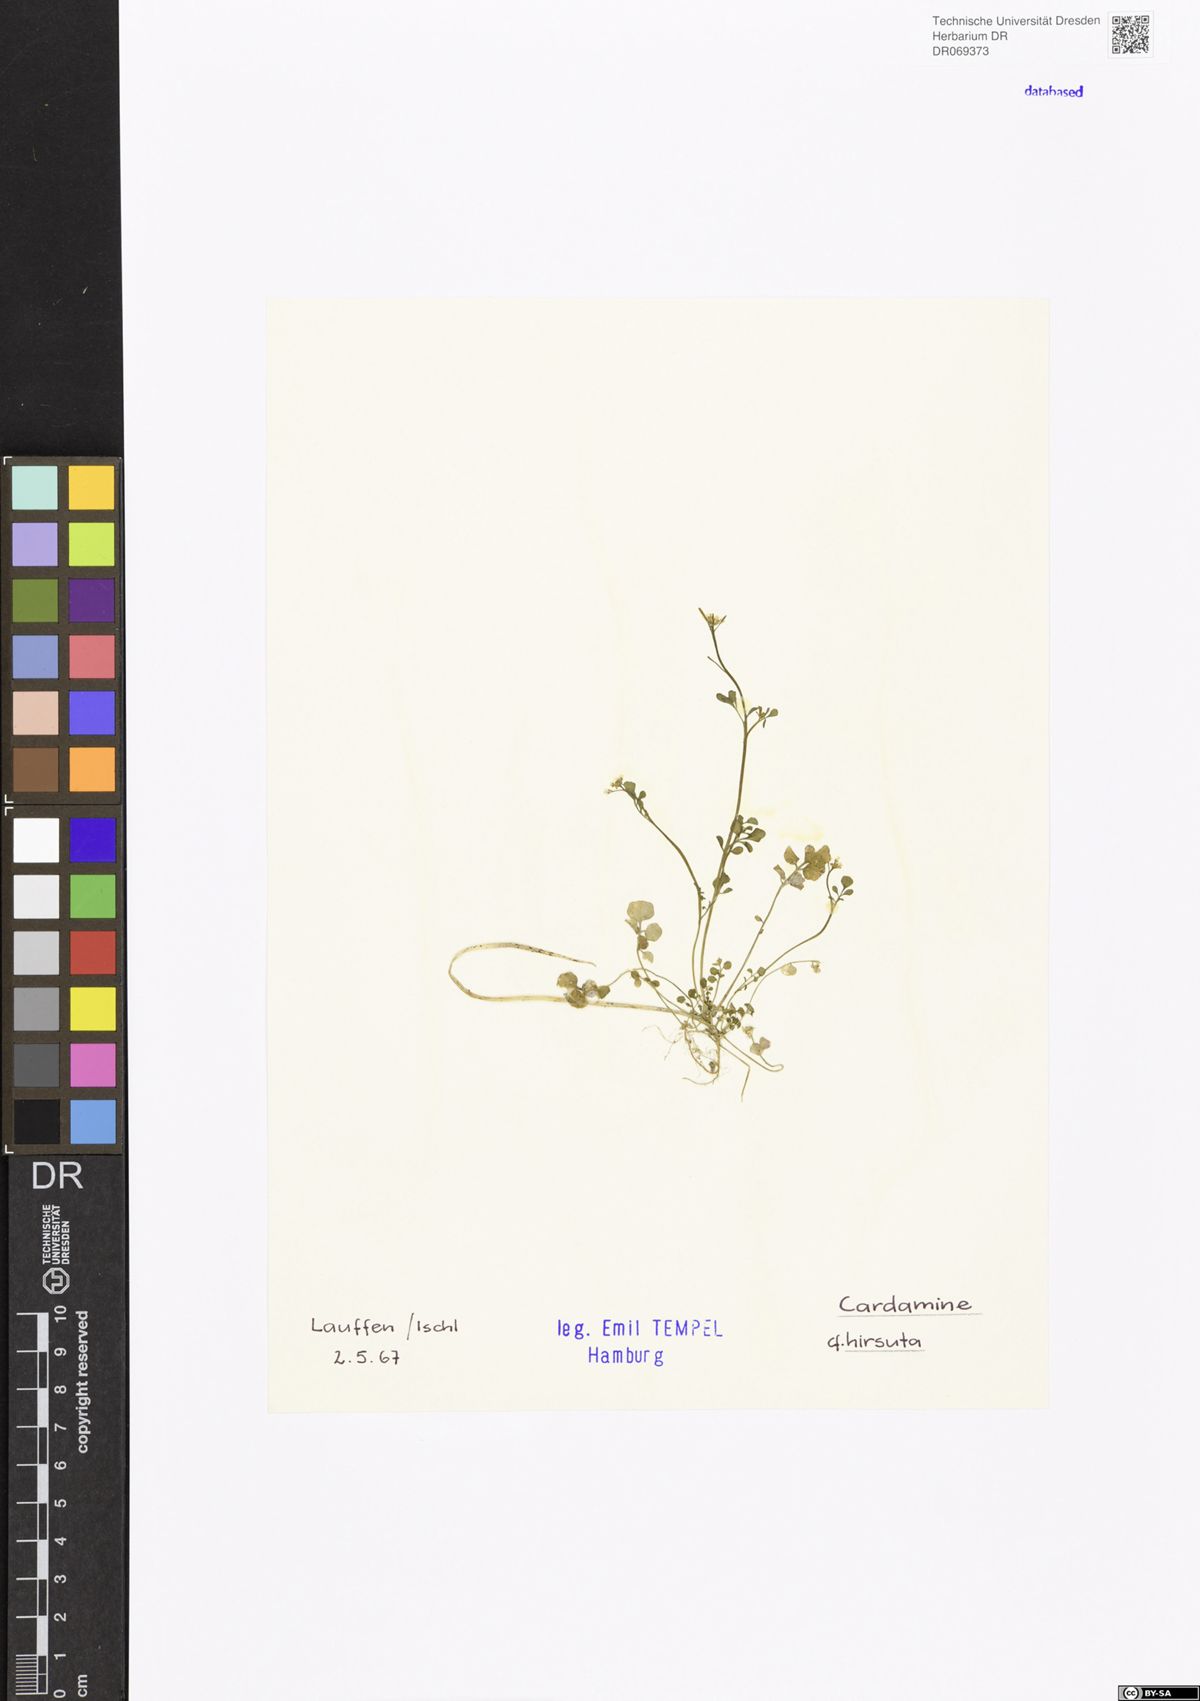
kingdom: Plantae
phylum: Tracheophyta
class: Magnoliopsida
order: Brassicales
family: Brassicaceae
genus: Cardamine
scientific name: Cardamine hirsuta
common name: Hairy bittercress
